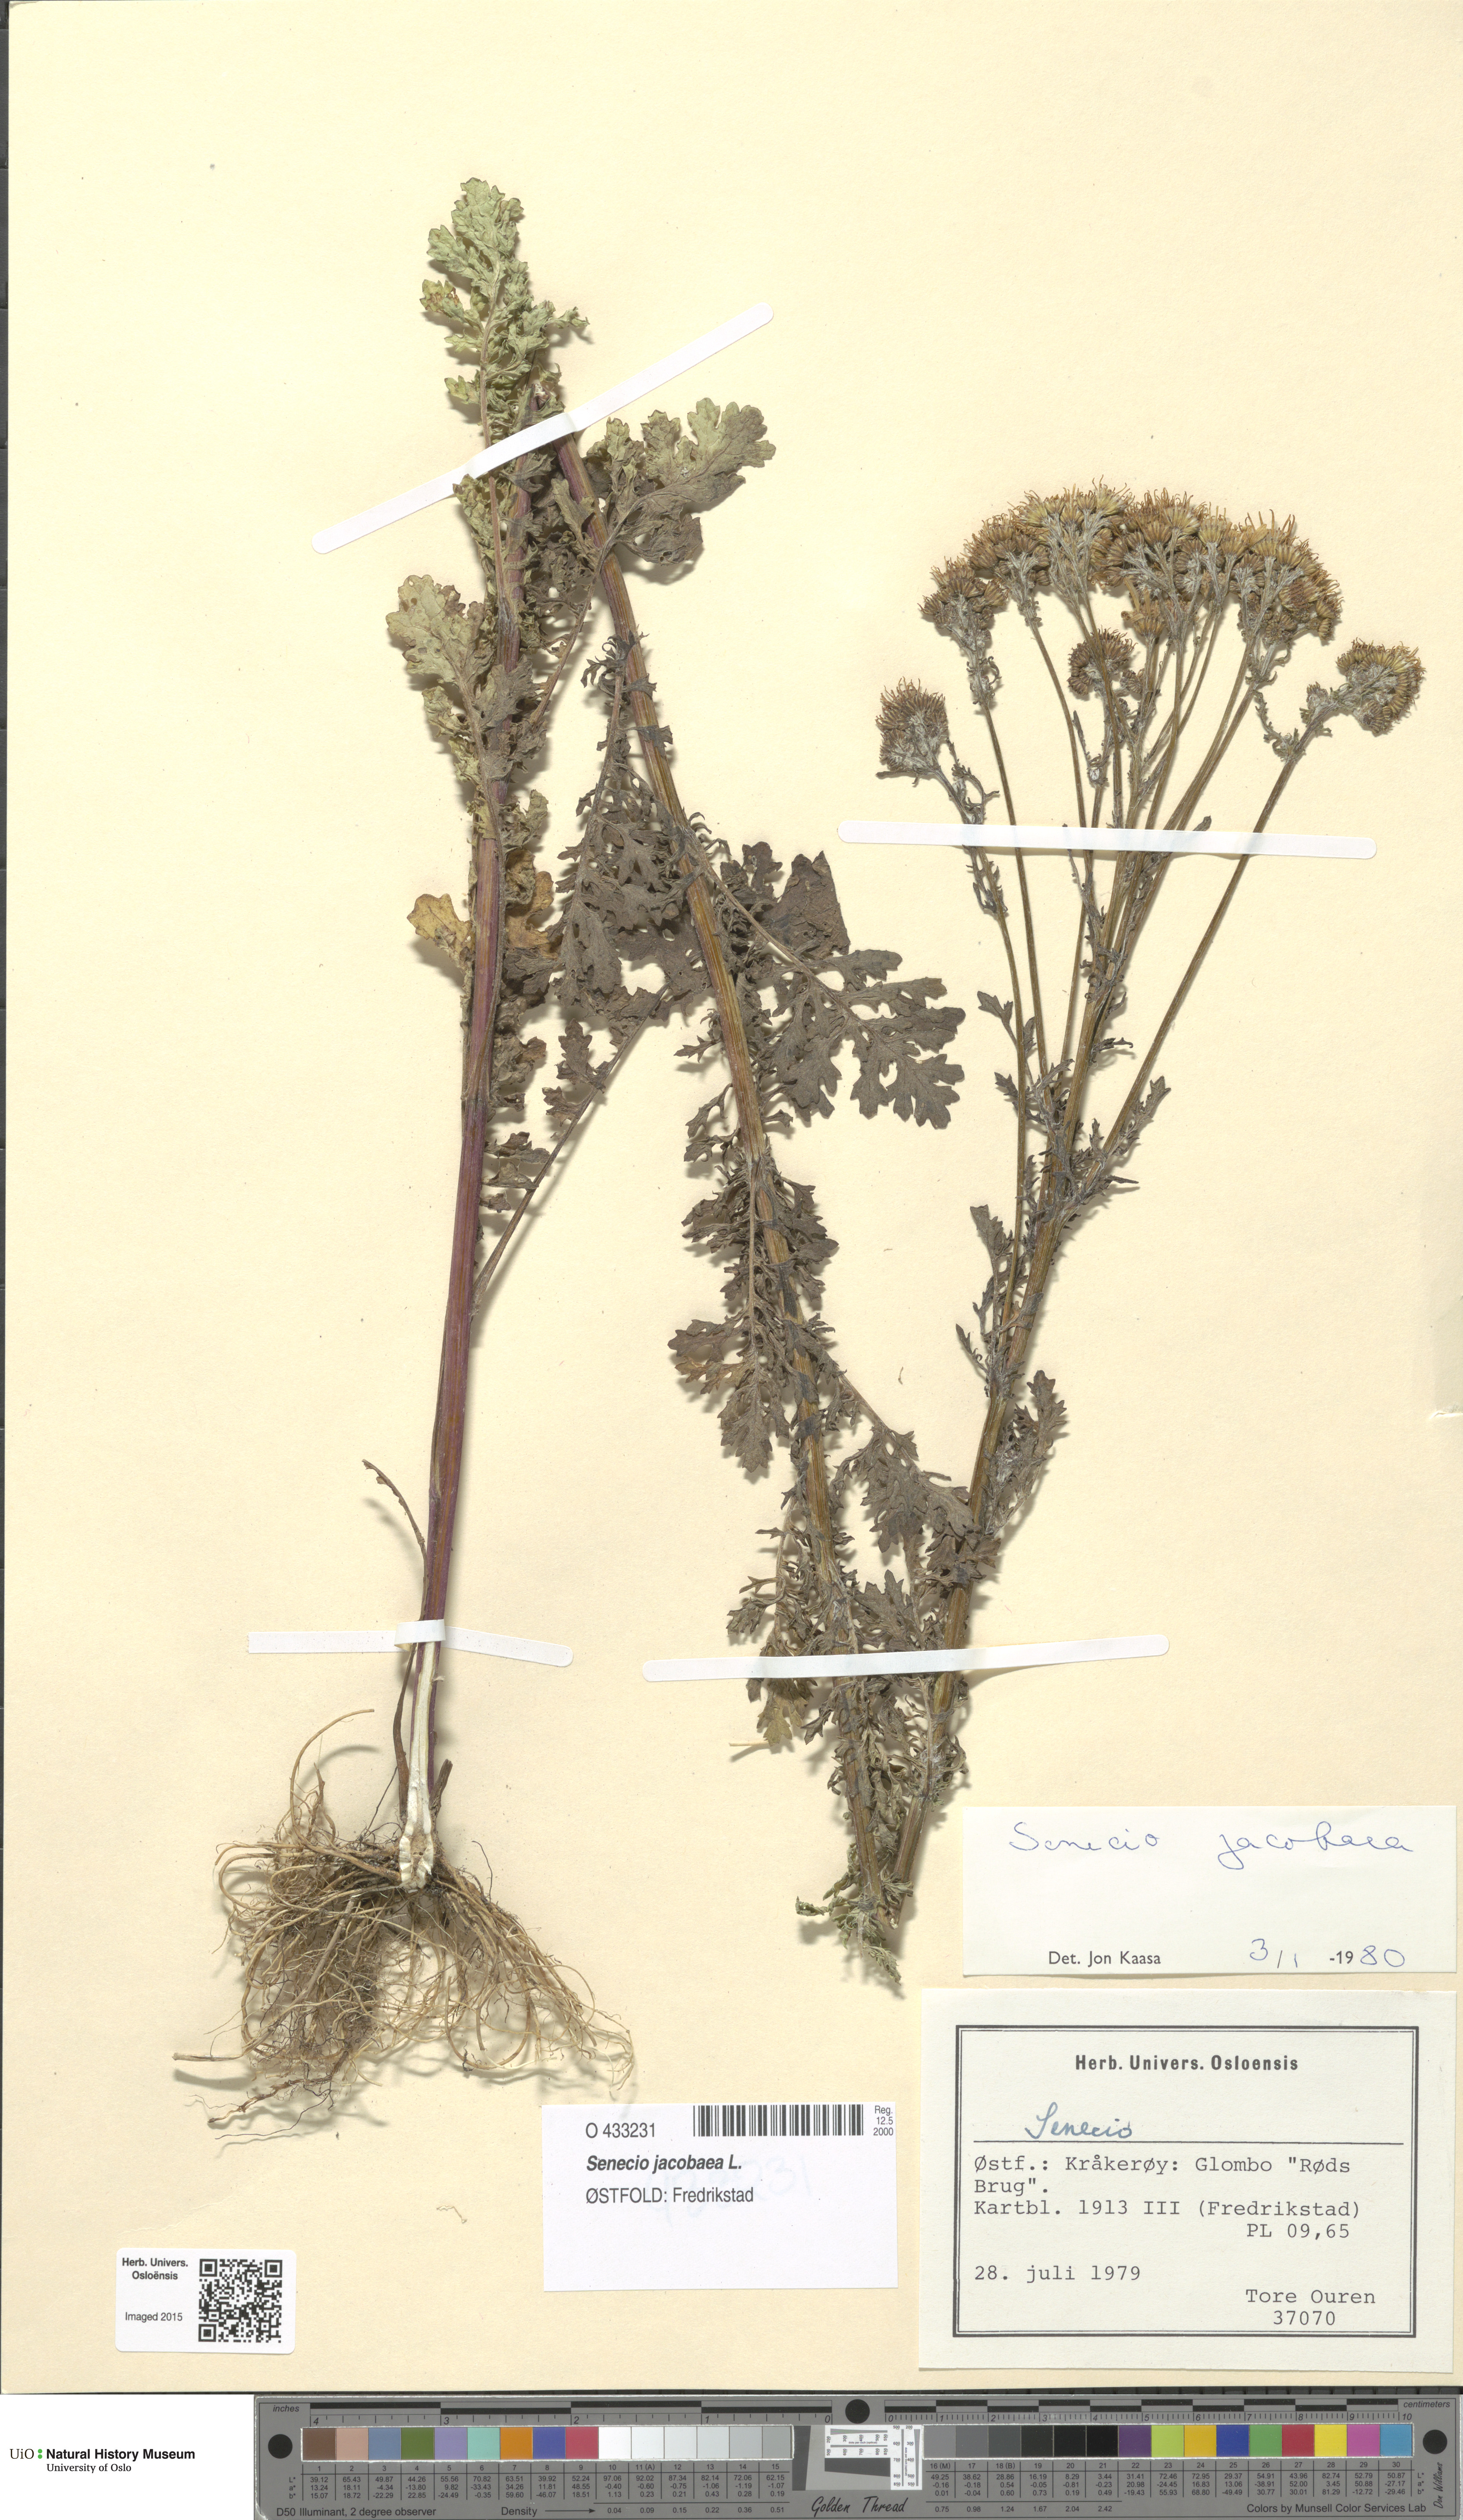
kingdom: Plantae
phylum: Tracheophyta
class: Magnoliopsida
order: Asterales
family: Asteraceae
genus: Jacobaea
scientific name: Jacobaea vulgaris
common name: Stinking willie
